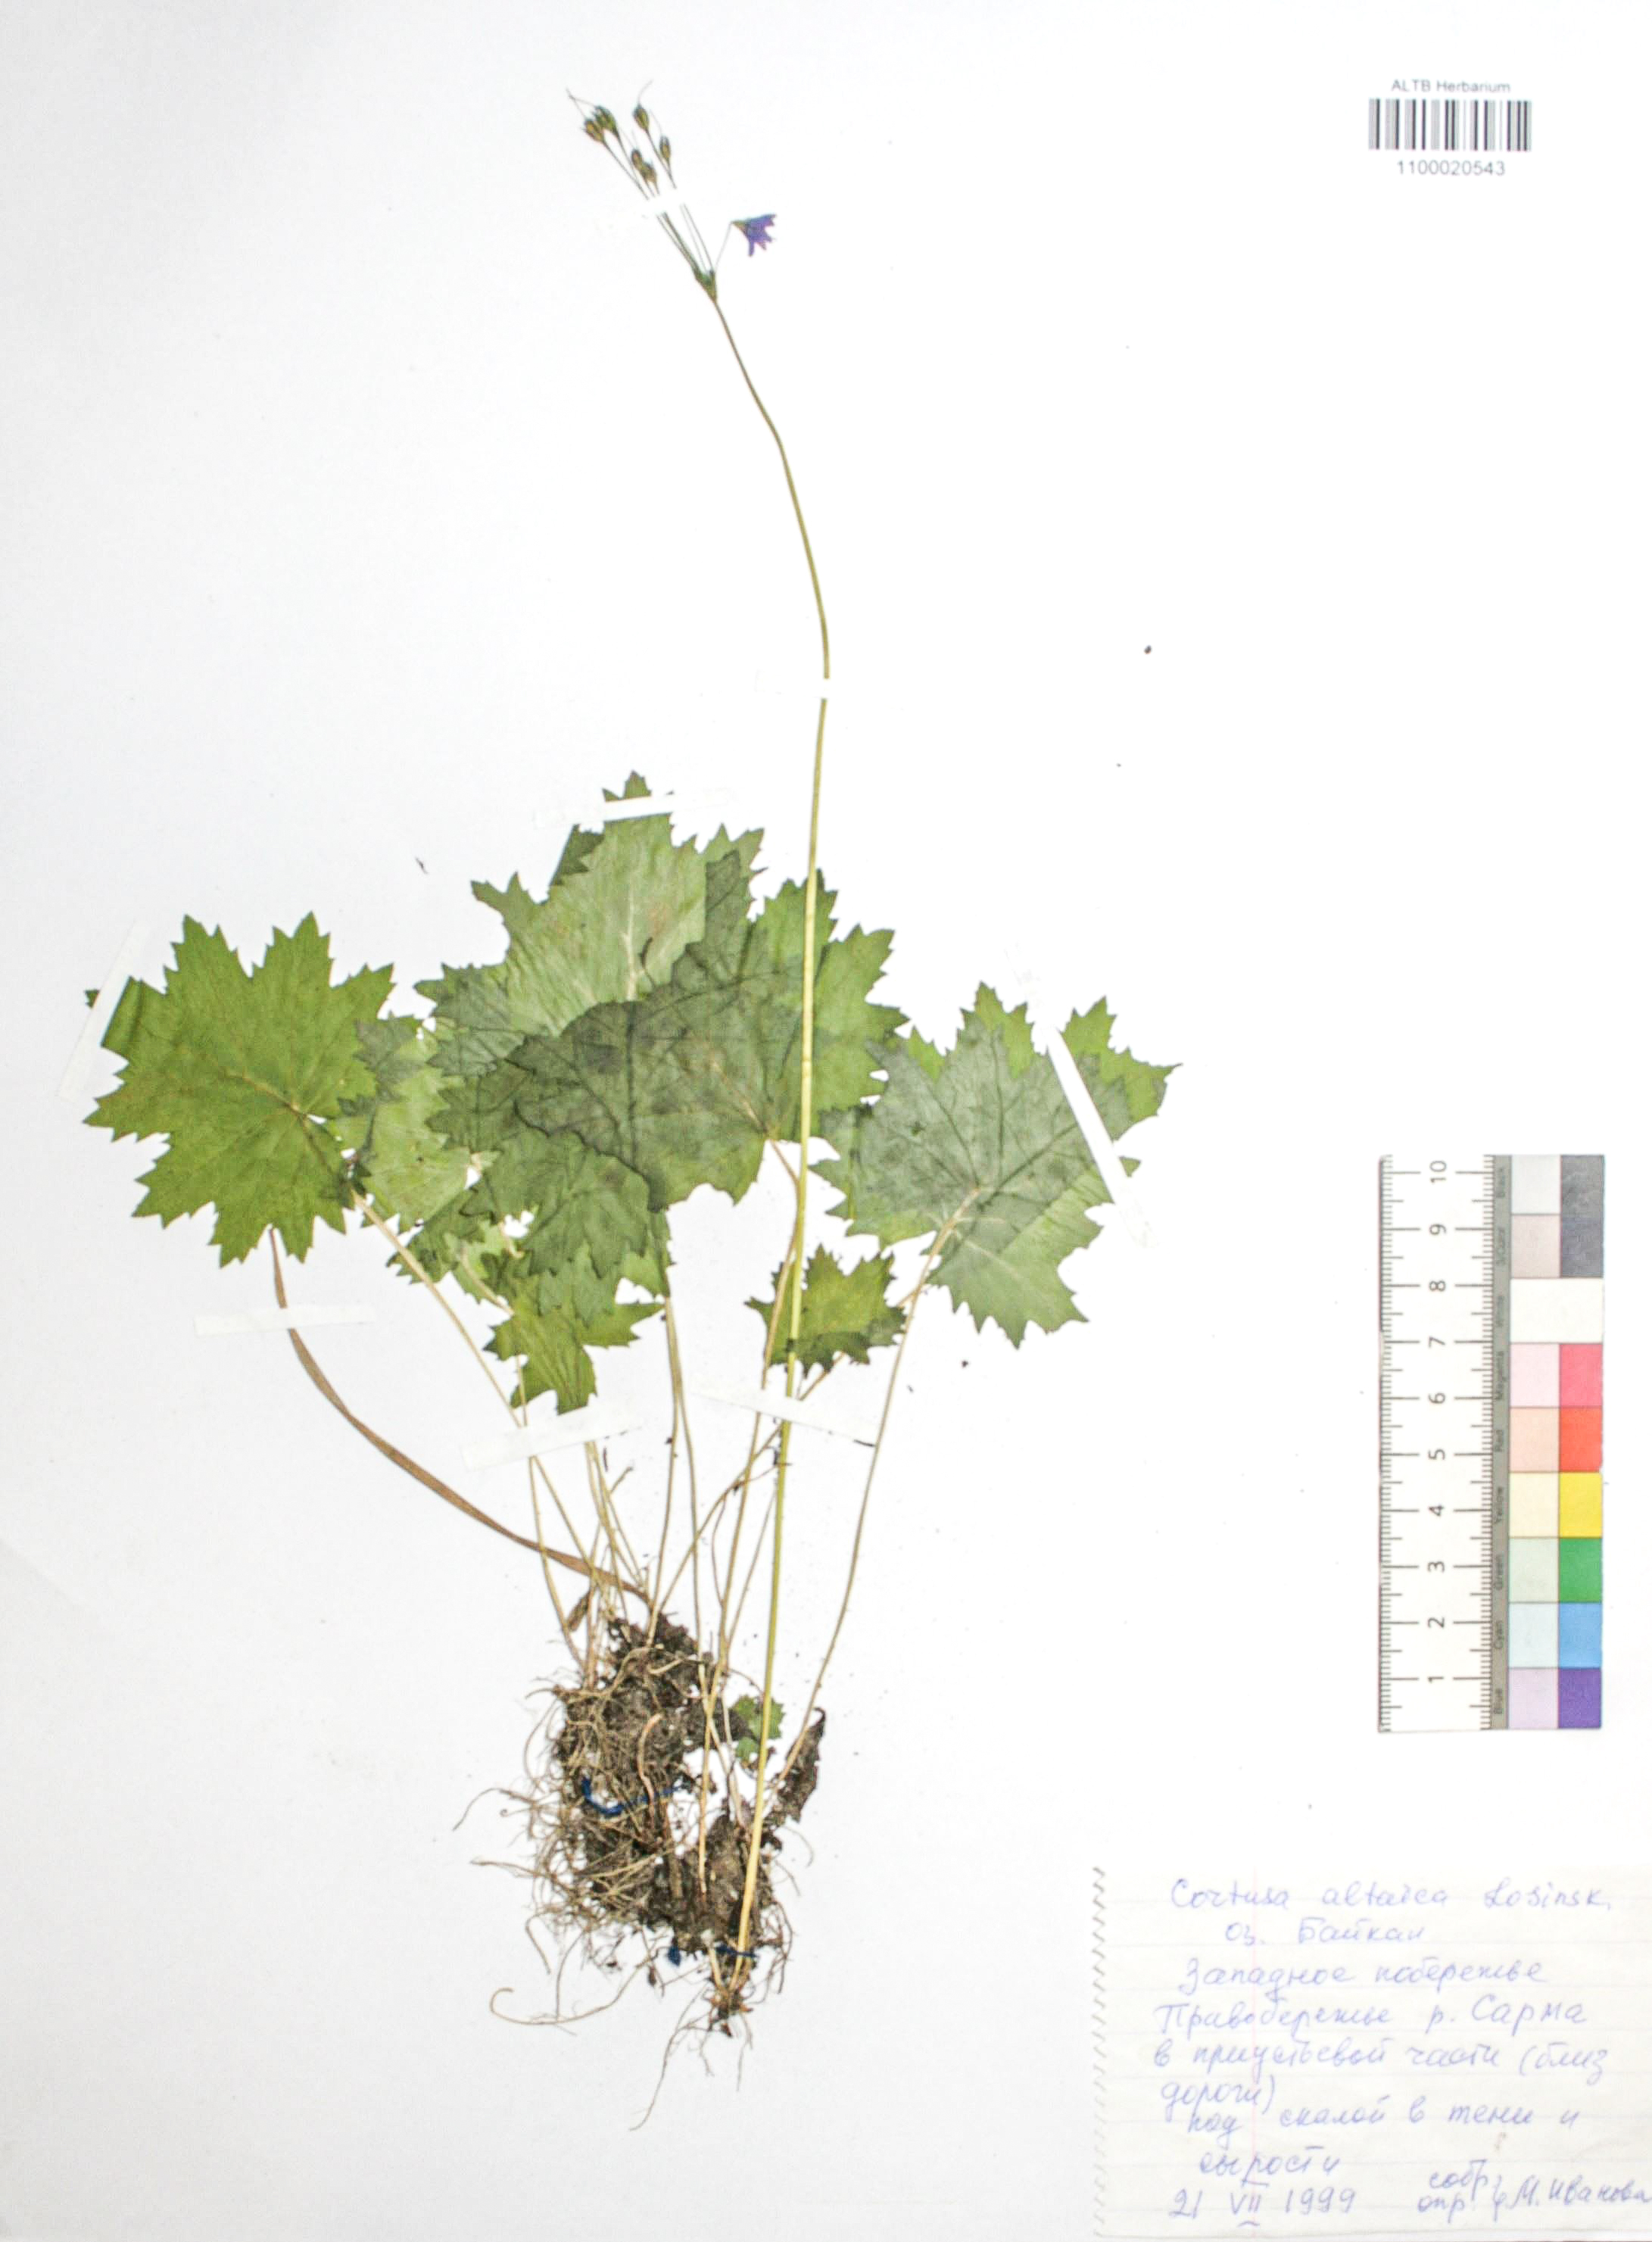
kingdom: Plantae
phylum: Tracheophyta
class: Magnoliopsida
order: Ericales
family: Primulaceae
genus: Primula
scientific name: Primula matthioli
